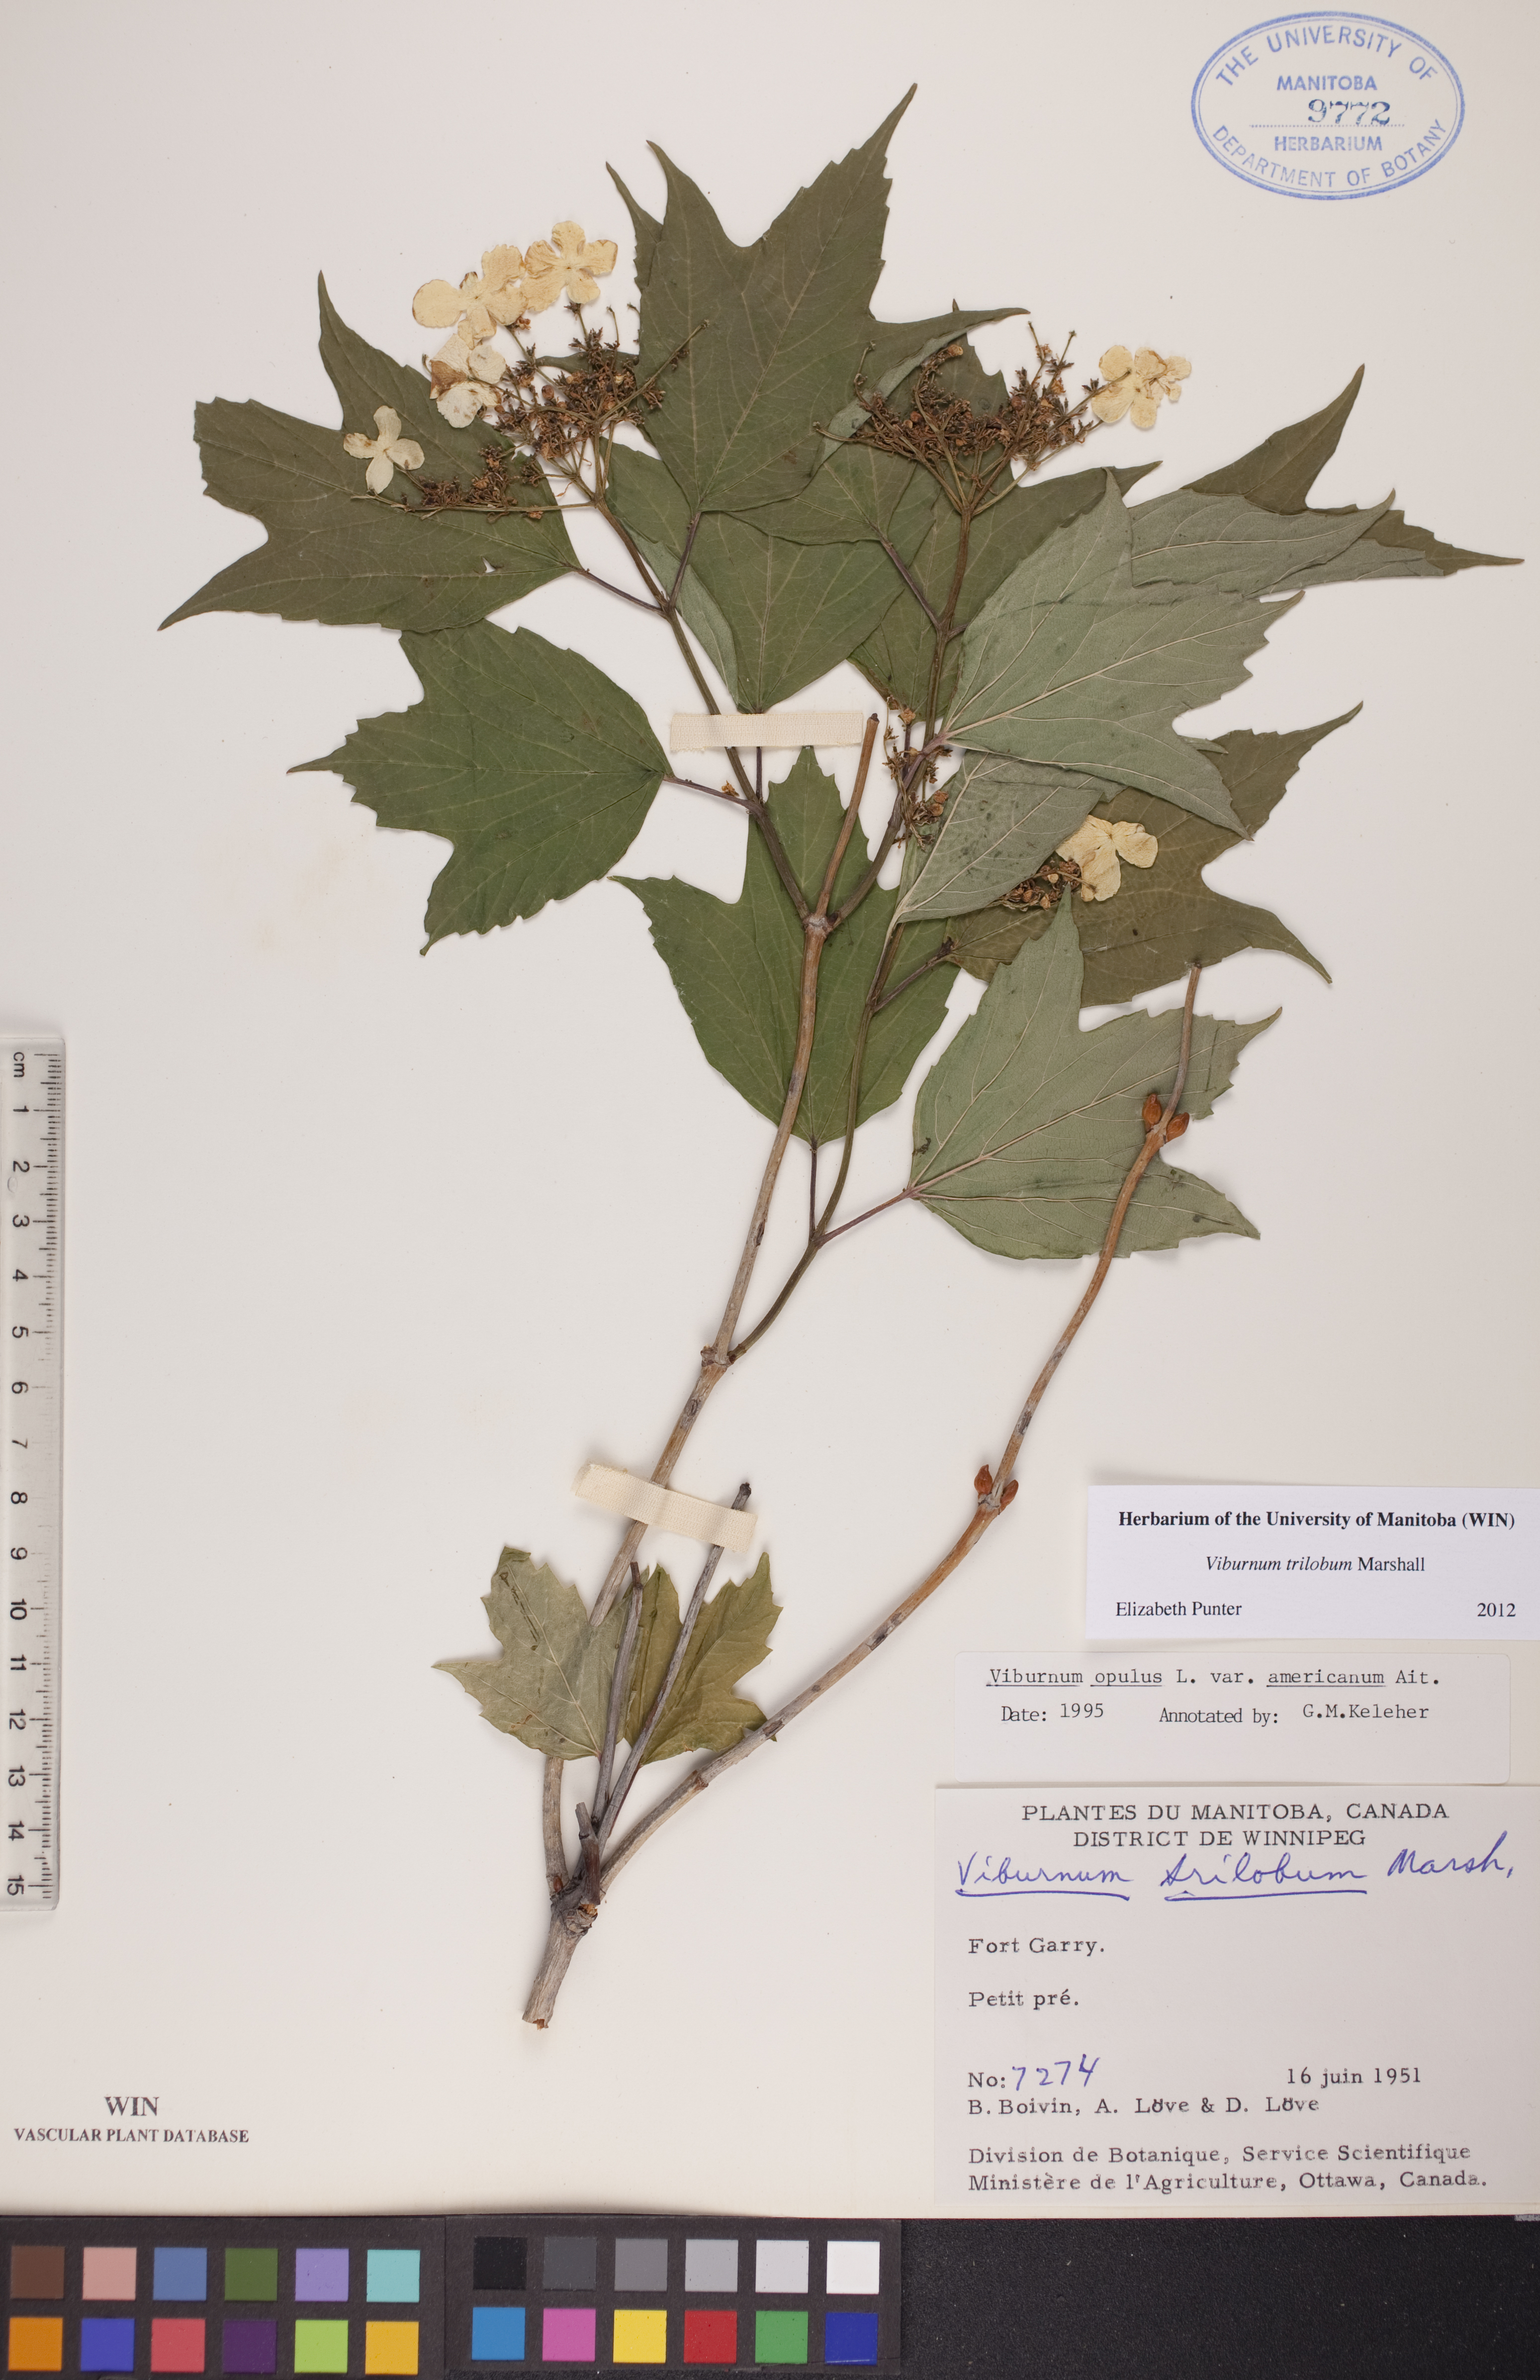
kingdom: Plantae
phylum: Tracheophyta
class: Magnoliopsida
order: Dipsacales
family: Viburnaceae
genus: Viburnum
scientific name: Viburnum trilobum
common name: American cranberrybush
